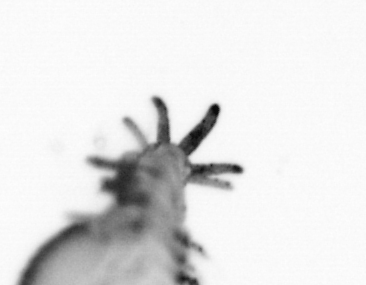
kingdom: Animalia
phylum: Annelida
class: Polychaeta
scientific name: Polychaeta
